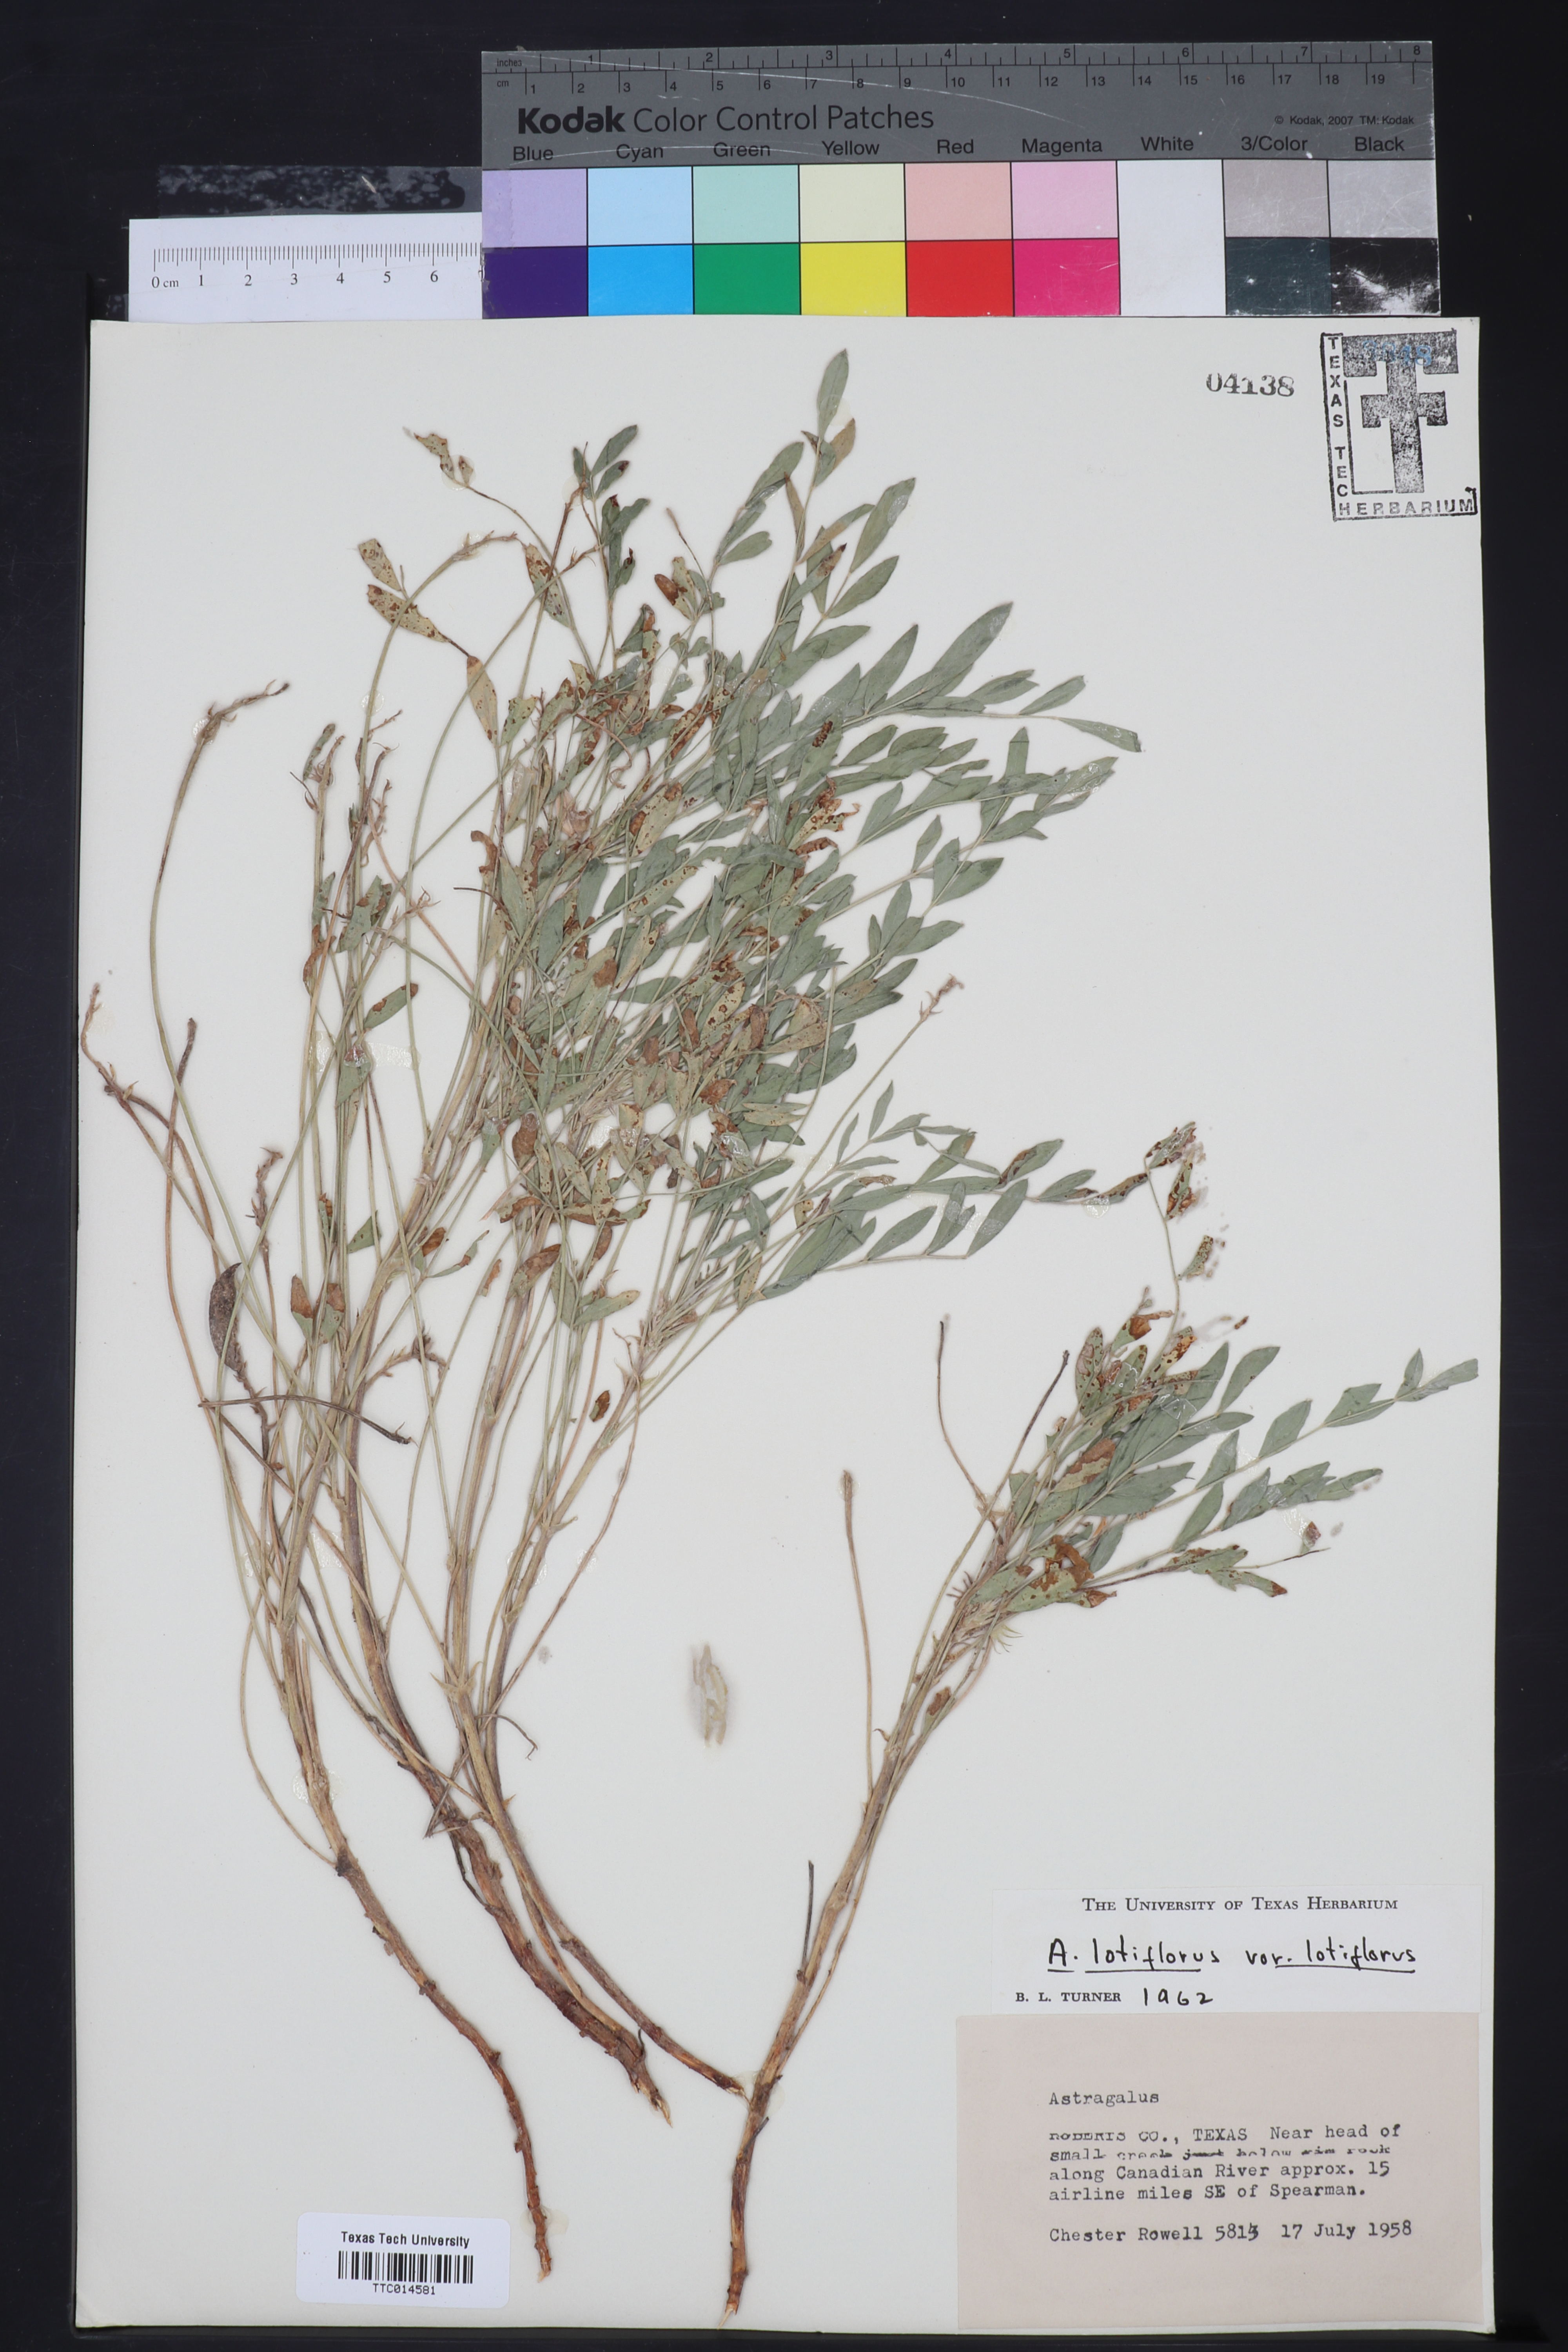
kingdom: Plantae
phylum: Tracheophyta
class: Magnoliopsida
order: Fabales
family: Fabaceae
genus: Astragalus
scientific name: Astragalus lotiflorus
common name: Lotus milk-vetch
